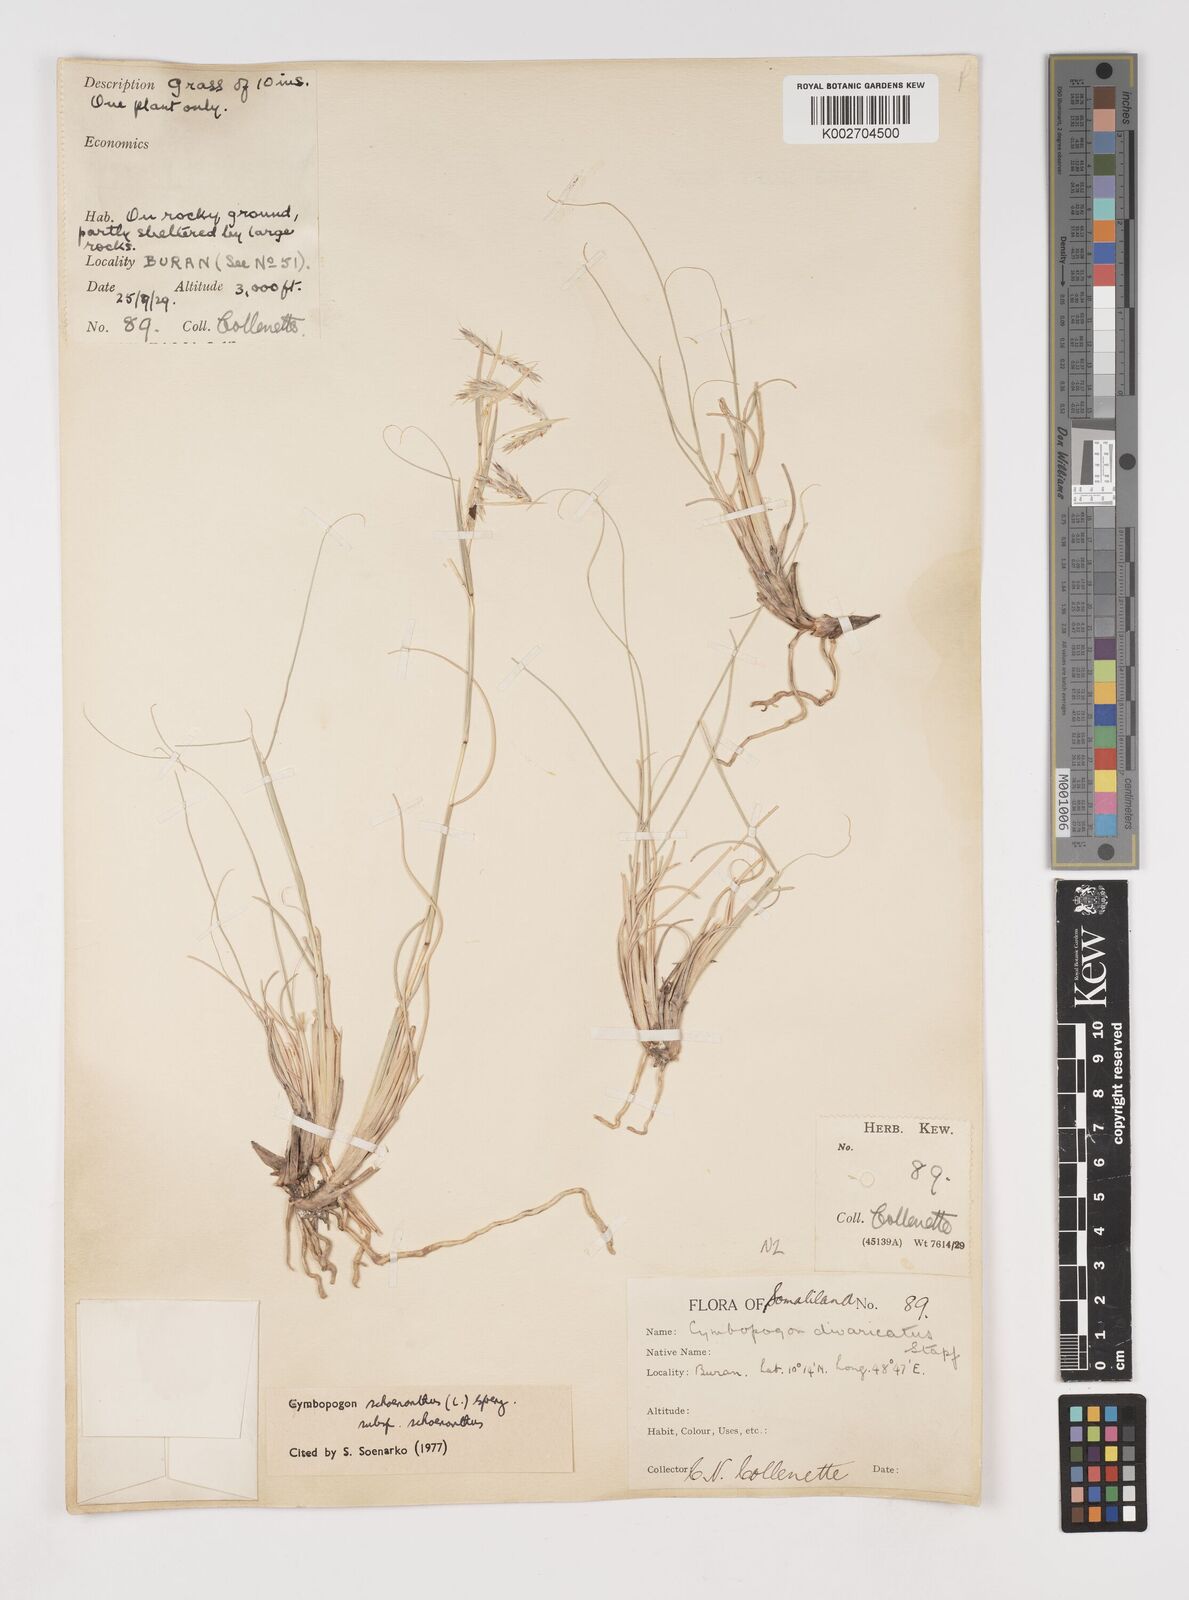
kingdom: Plantae
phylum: Tracheophyta
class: Liliopsida
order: Poales
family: Poaceae
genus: Cymbopogon
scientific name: Cymbopogon schoenanthus
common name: Geranium grass
